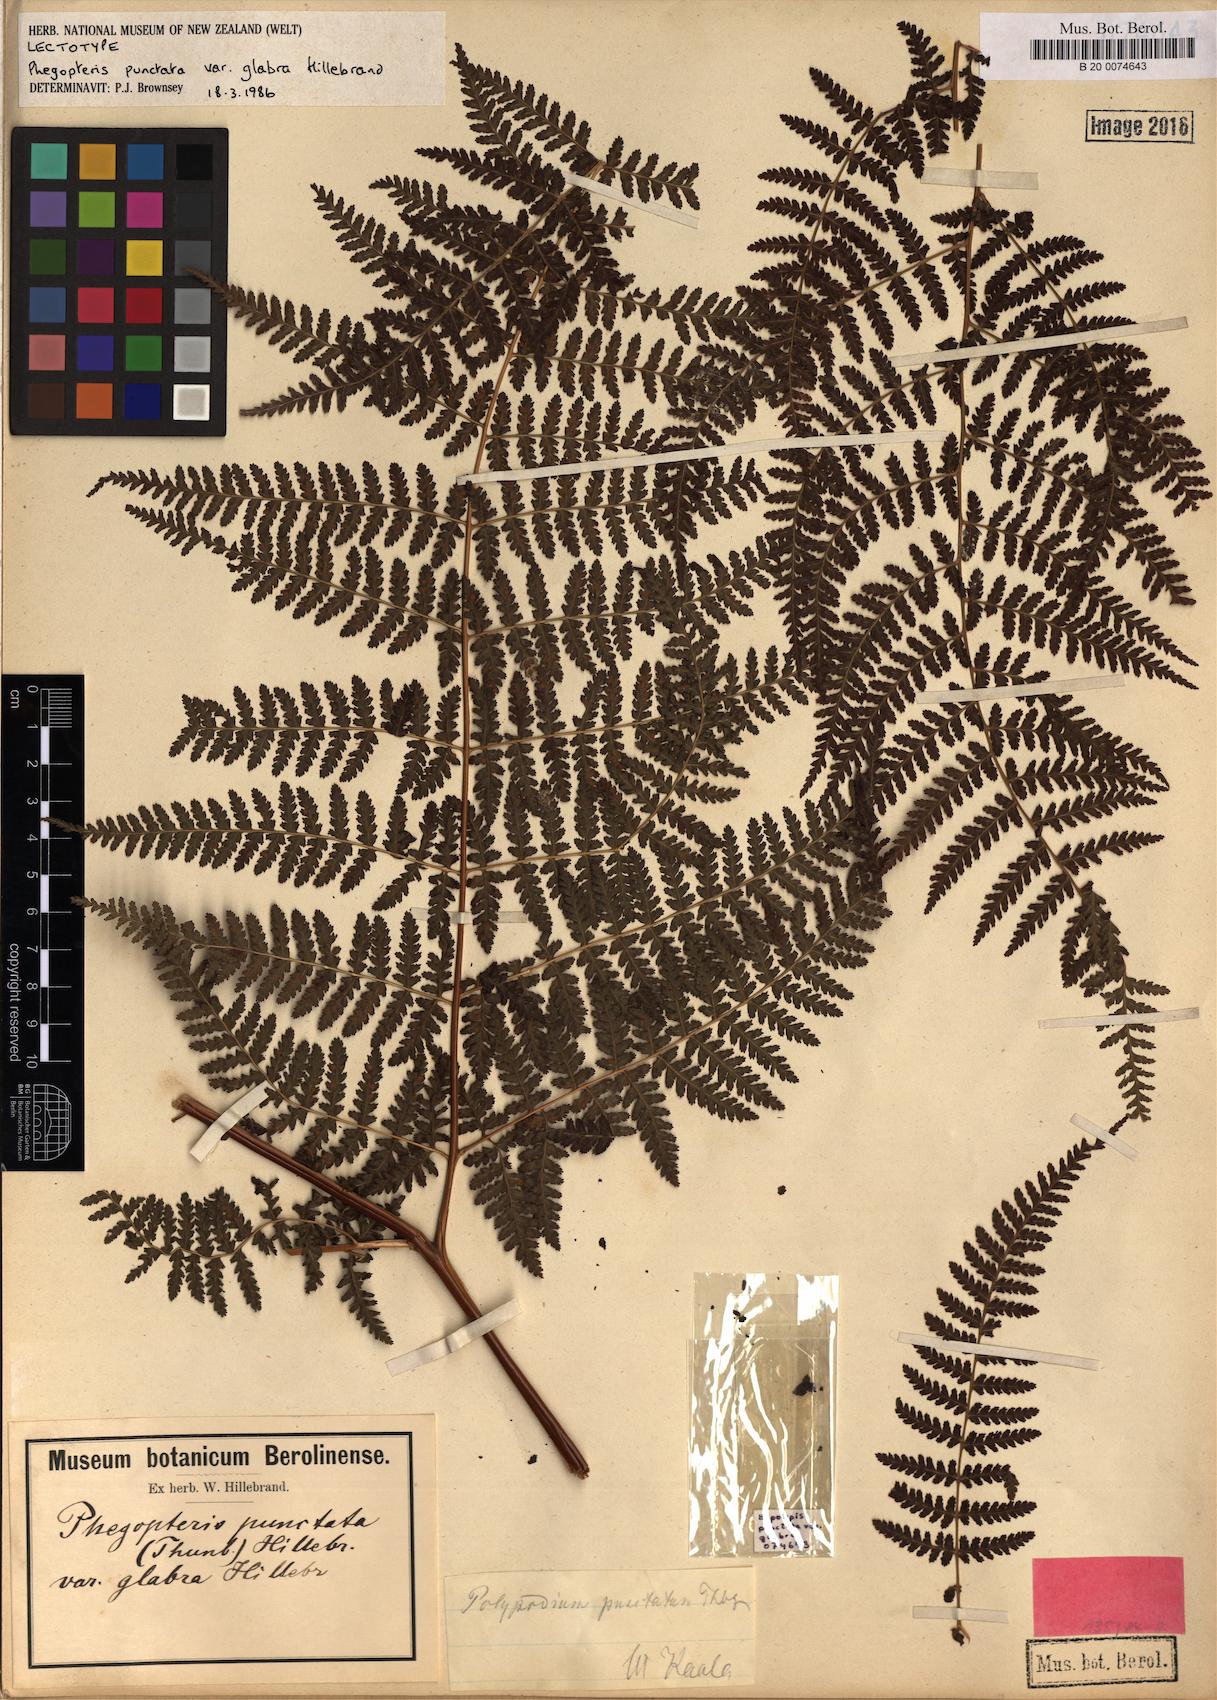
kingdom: Plantae
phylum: Tracheophyta
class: Polypodiopsida
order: Polypodiales
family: Dennstaedtiaceae
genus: Hypolepis
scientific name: Hypolepis hawaiiensis
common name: Dotted beadfern
